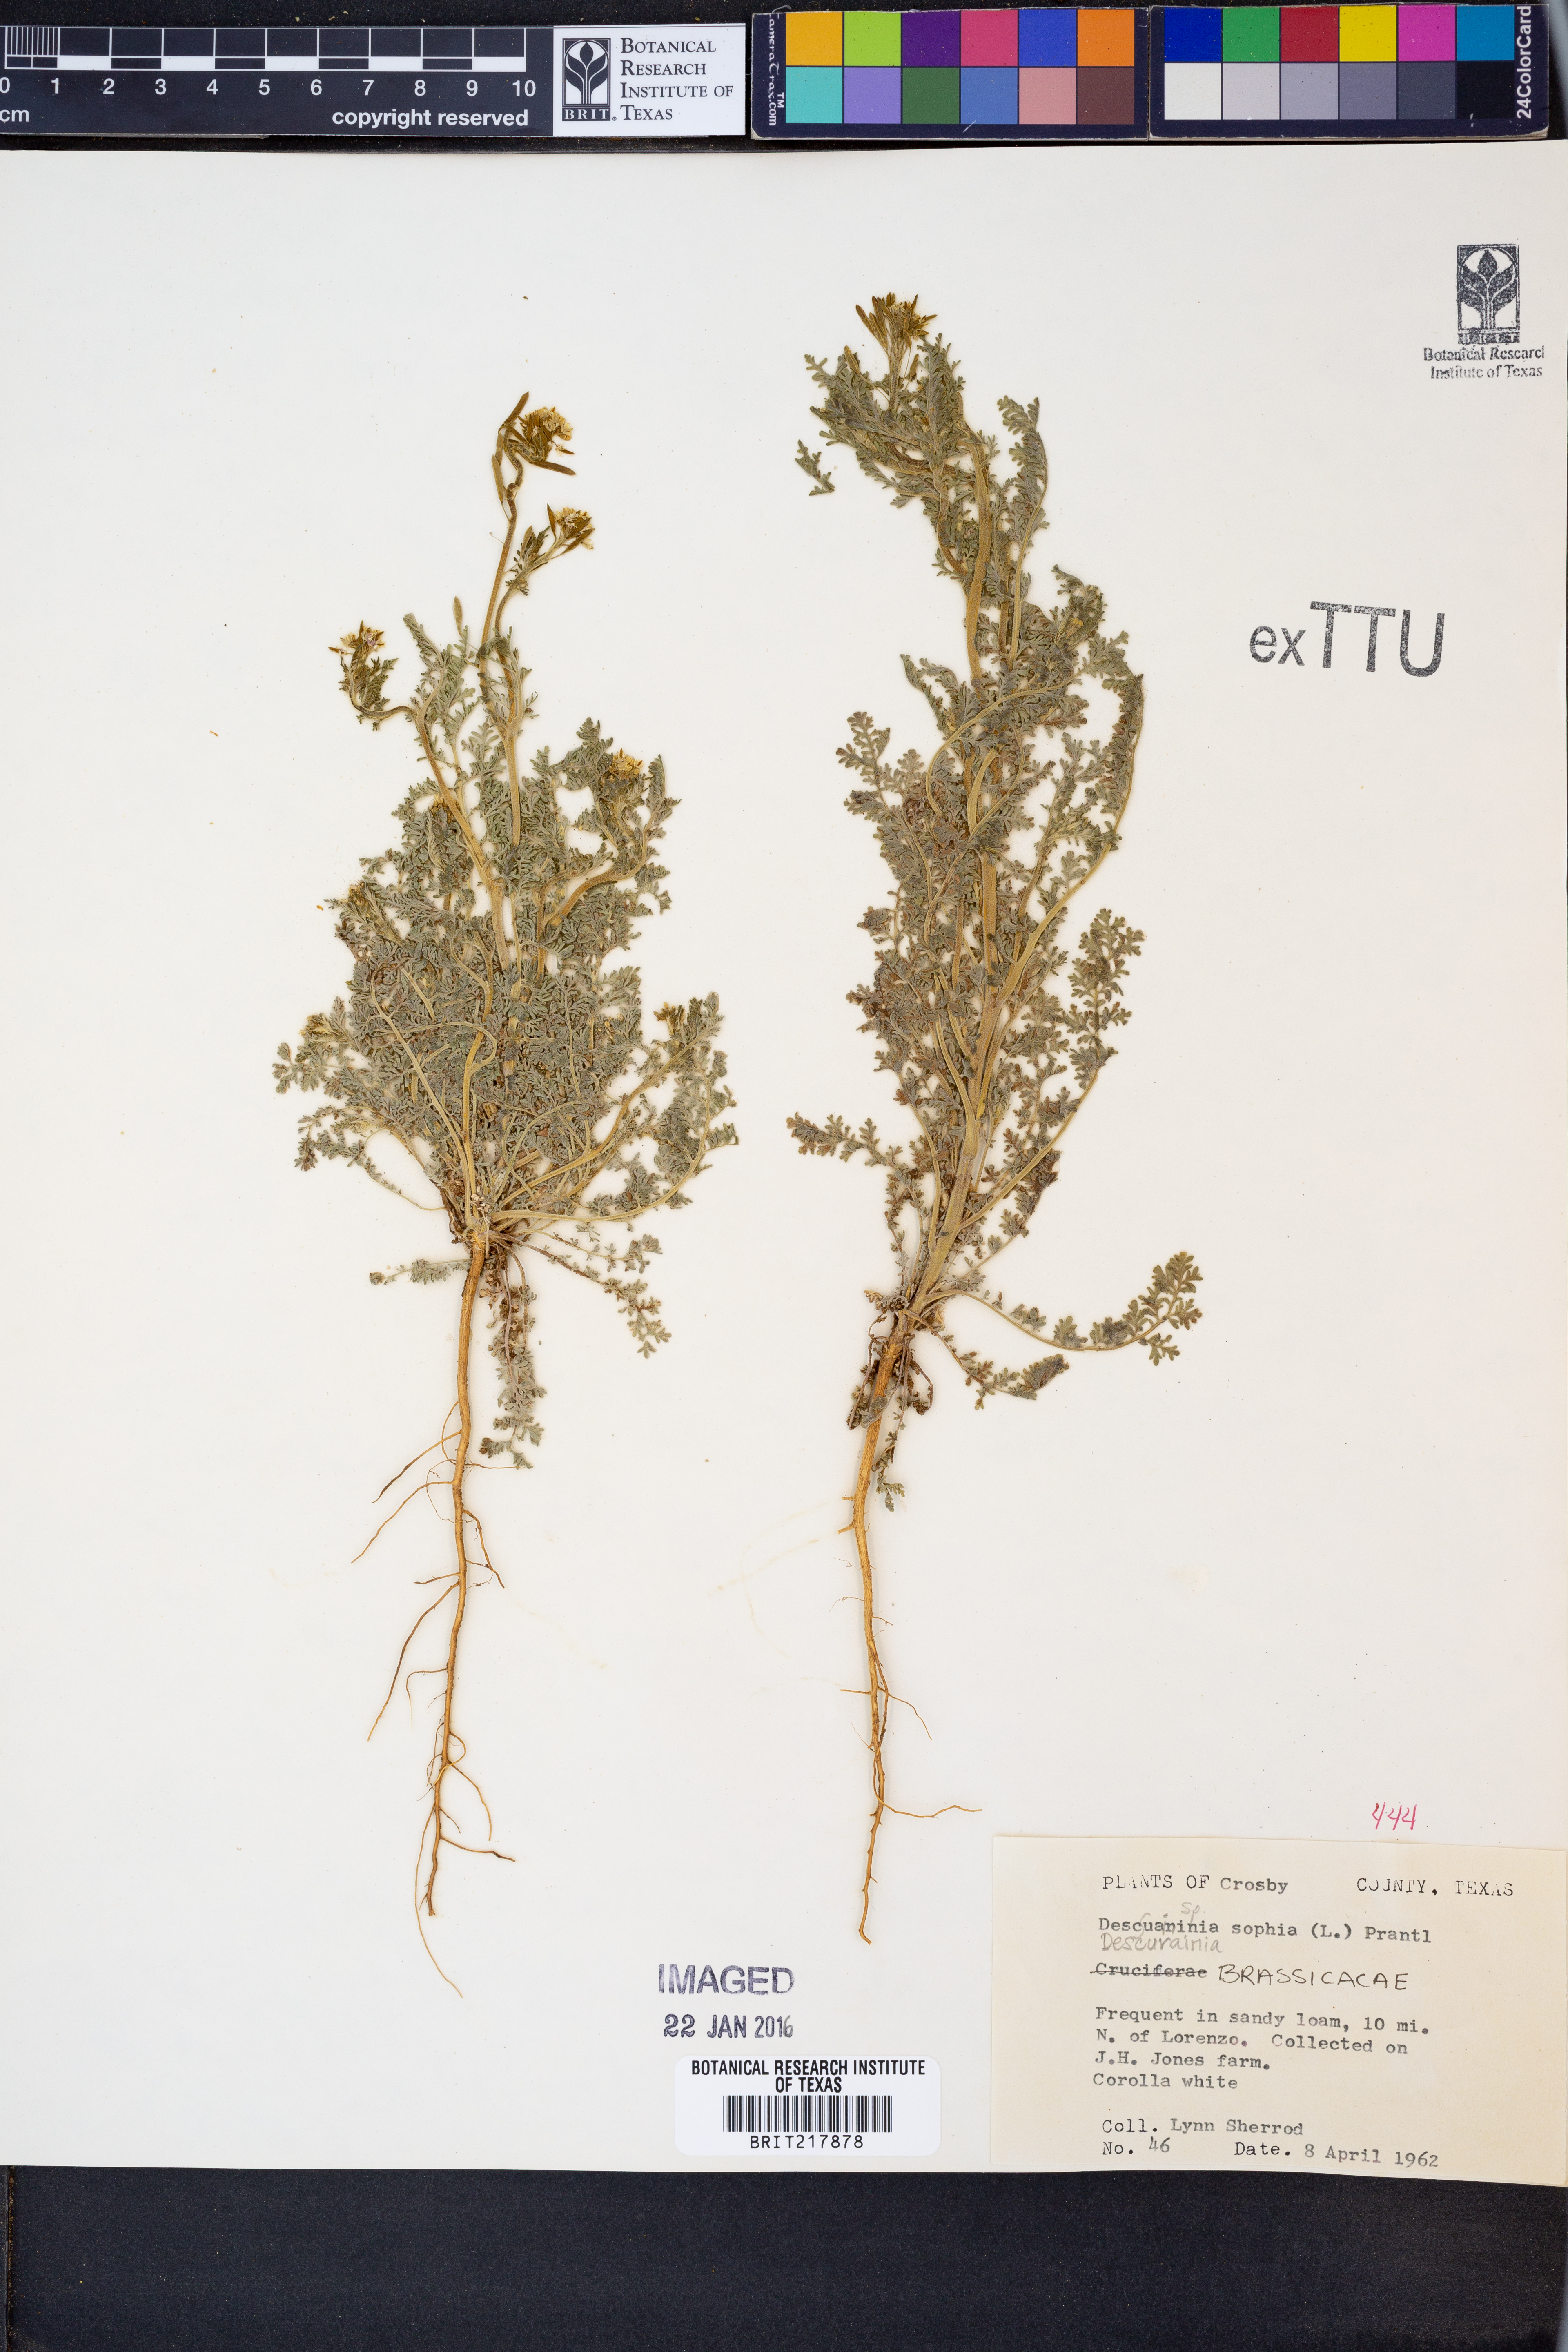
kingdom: Plantae
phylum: Tracheophyta
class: Magnoliopsida
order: Brassicales
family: Brassicaceae
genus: Descurainia
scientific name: Descurainia sophia
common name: Flixweed
